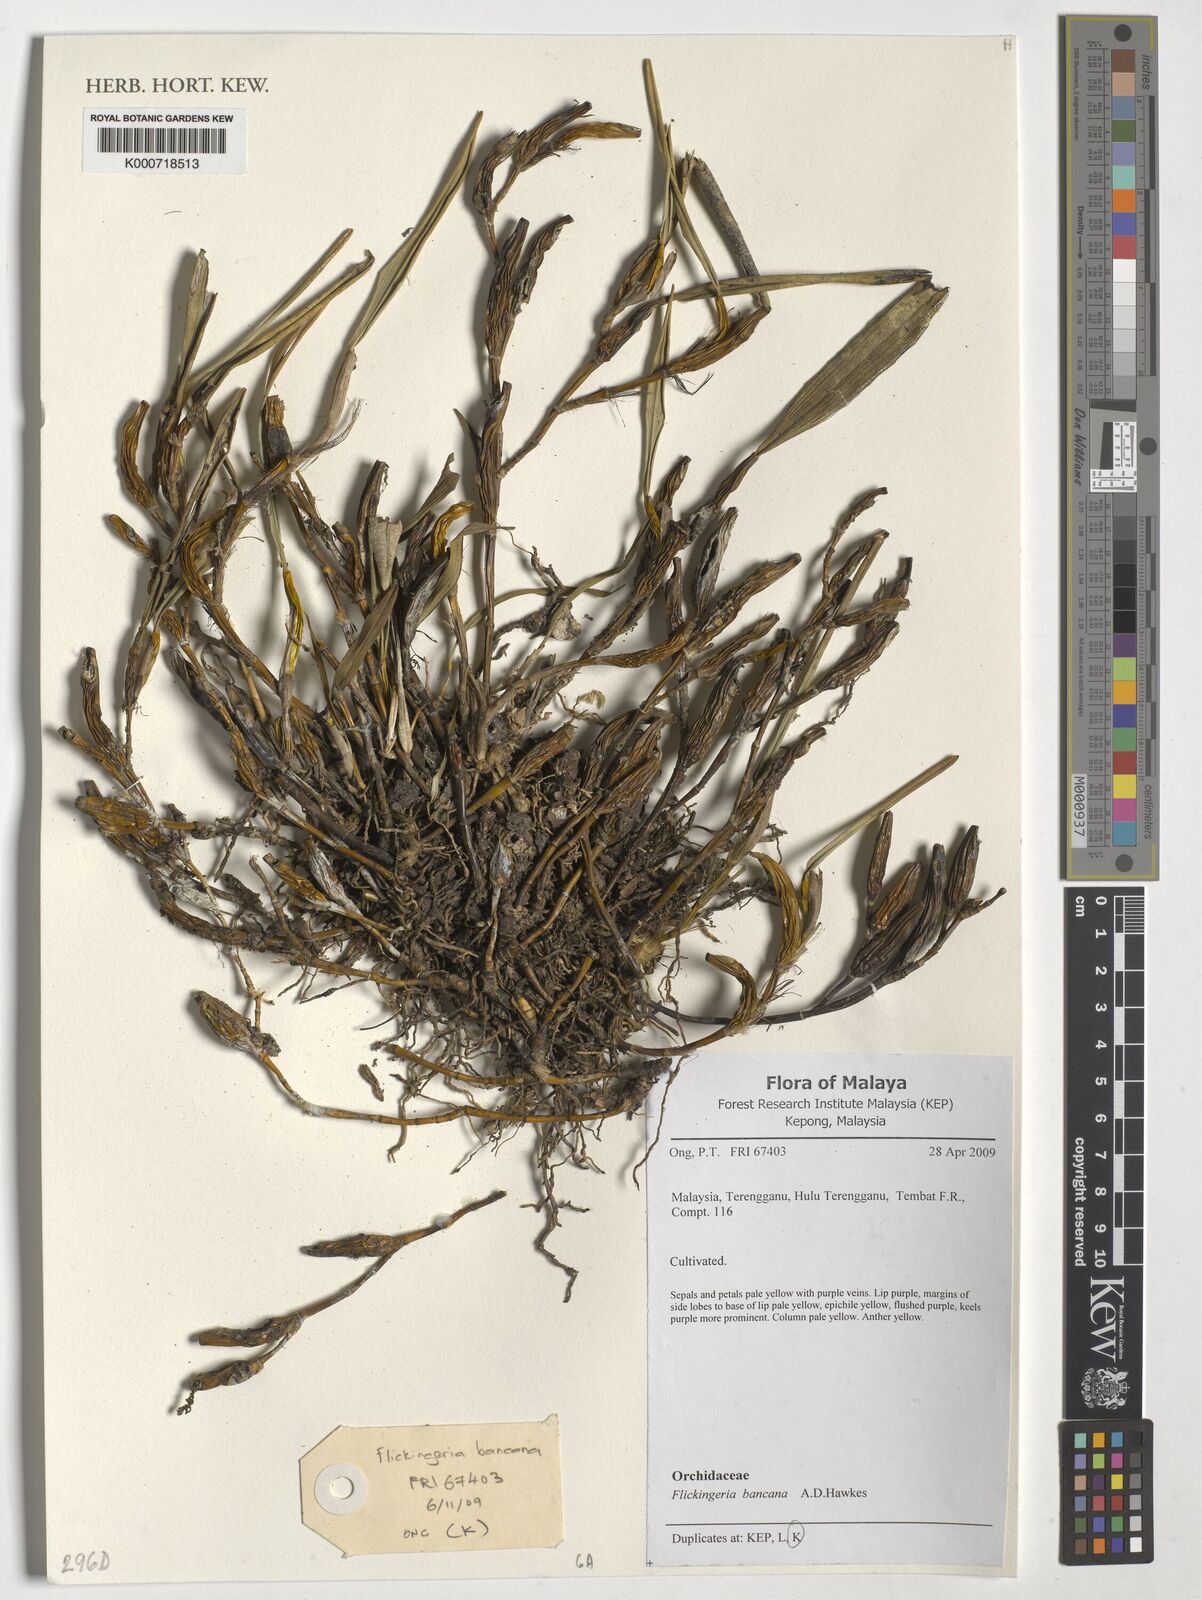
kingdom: Plantae
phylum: Tracheophyta
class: Liliopsida
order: Asparagales
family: Orchidaceae
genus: Dendrobium
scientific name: Dendrobium angustifolium
